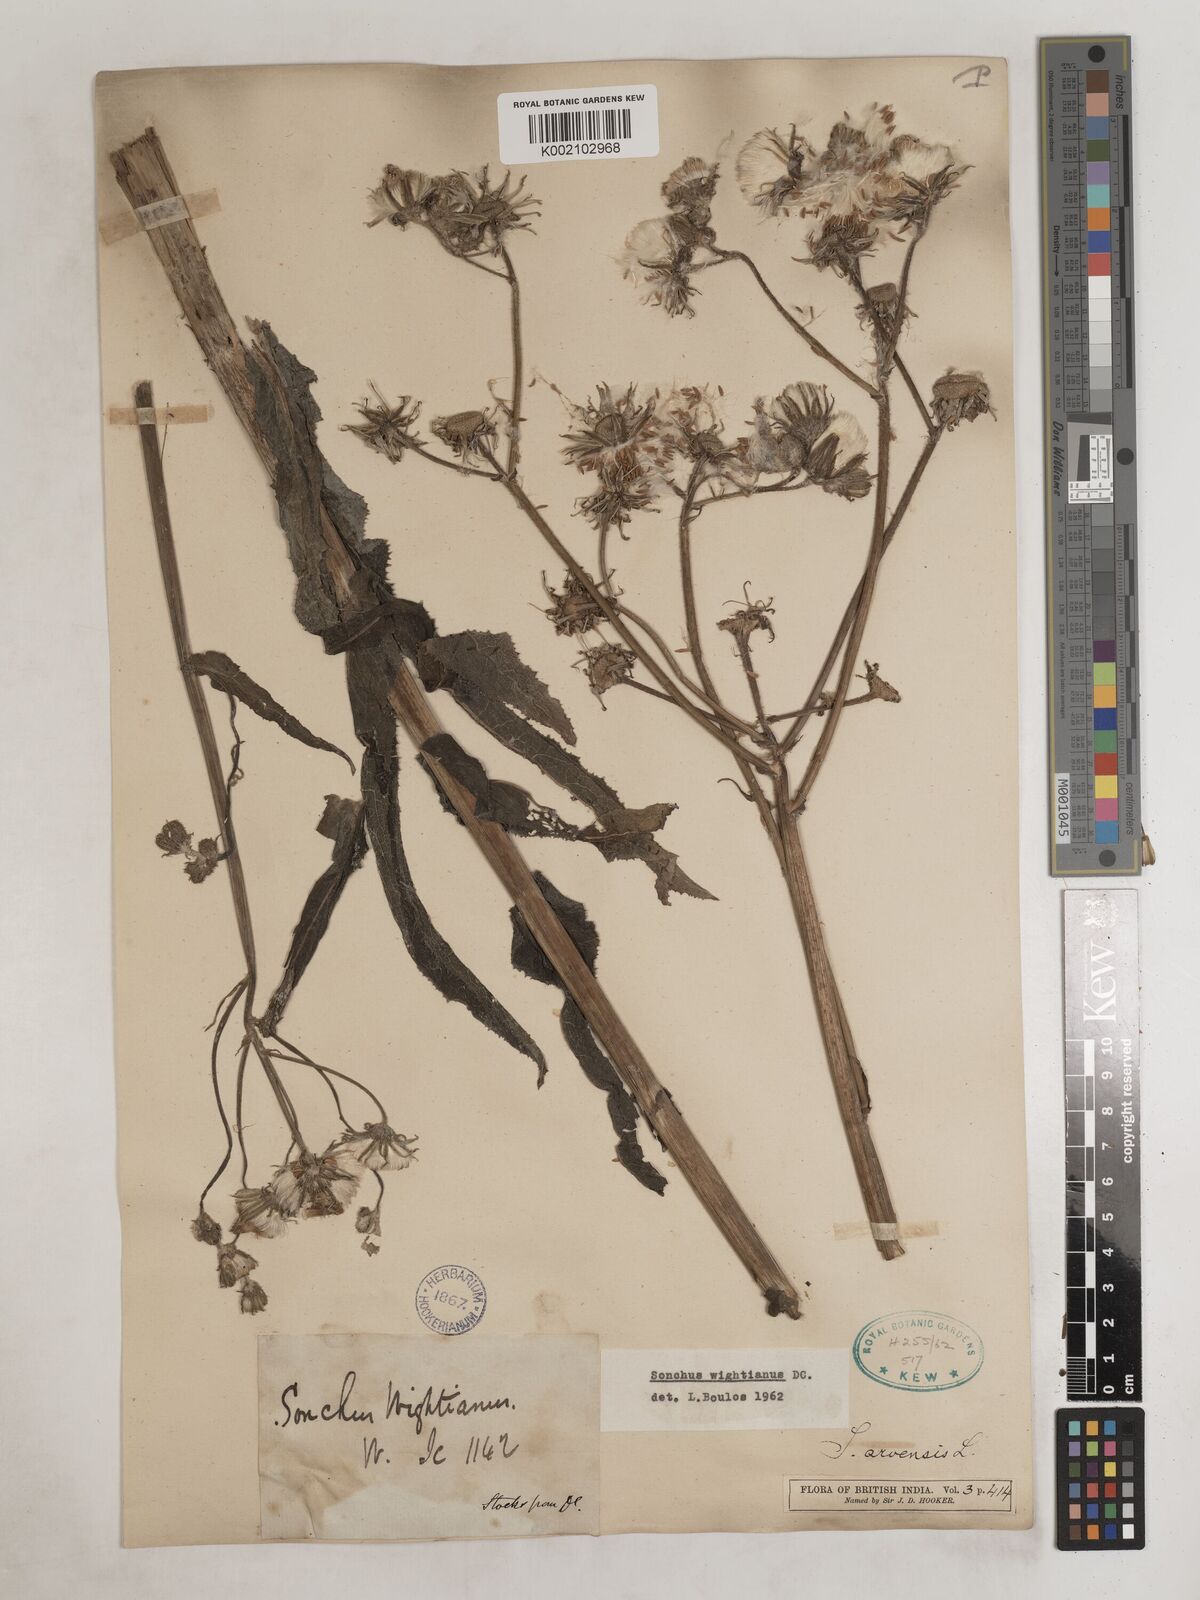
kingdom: Plantae
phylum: Tracheophyta
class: Magnoliopsida
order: Asterales
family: Asteraceae
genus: Sonchus
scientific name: Sonchus arvensis
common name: Perennial sow-thistle
